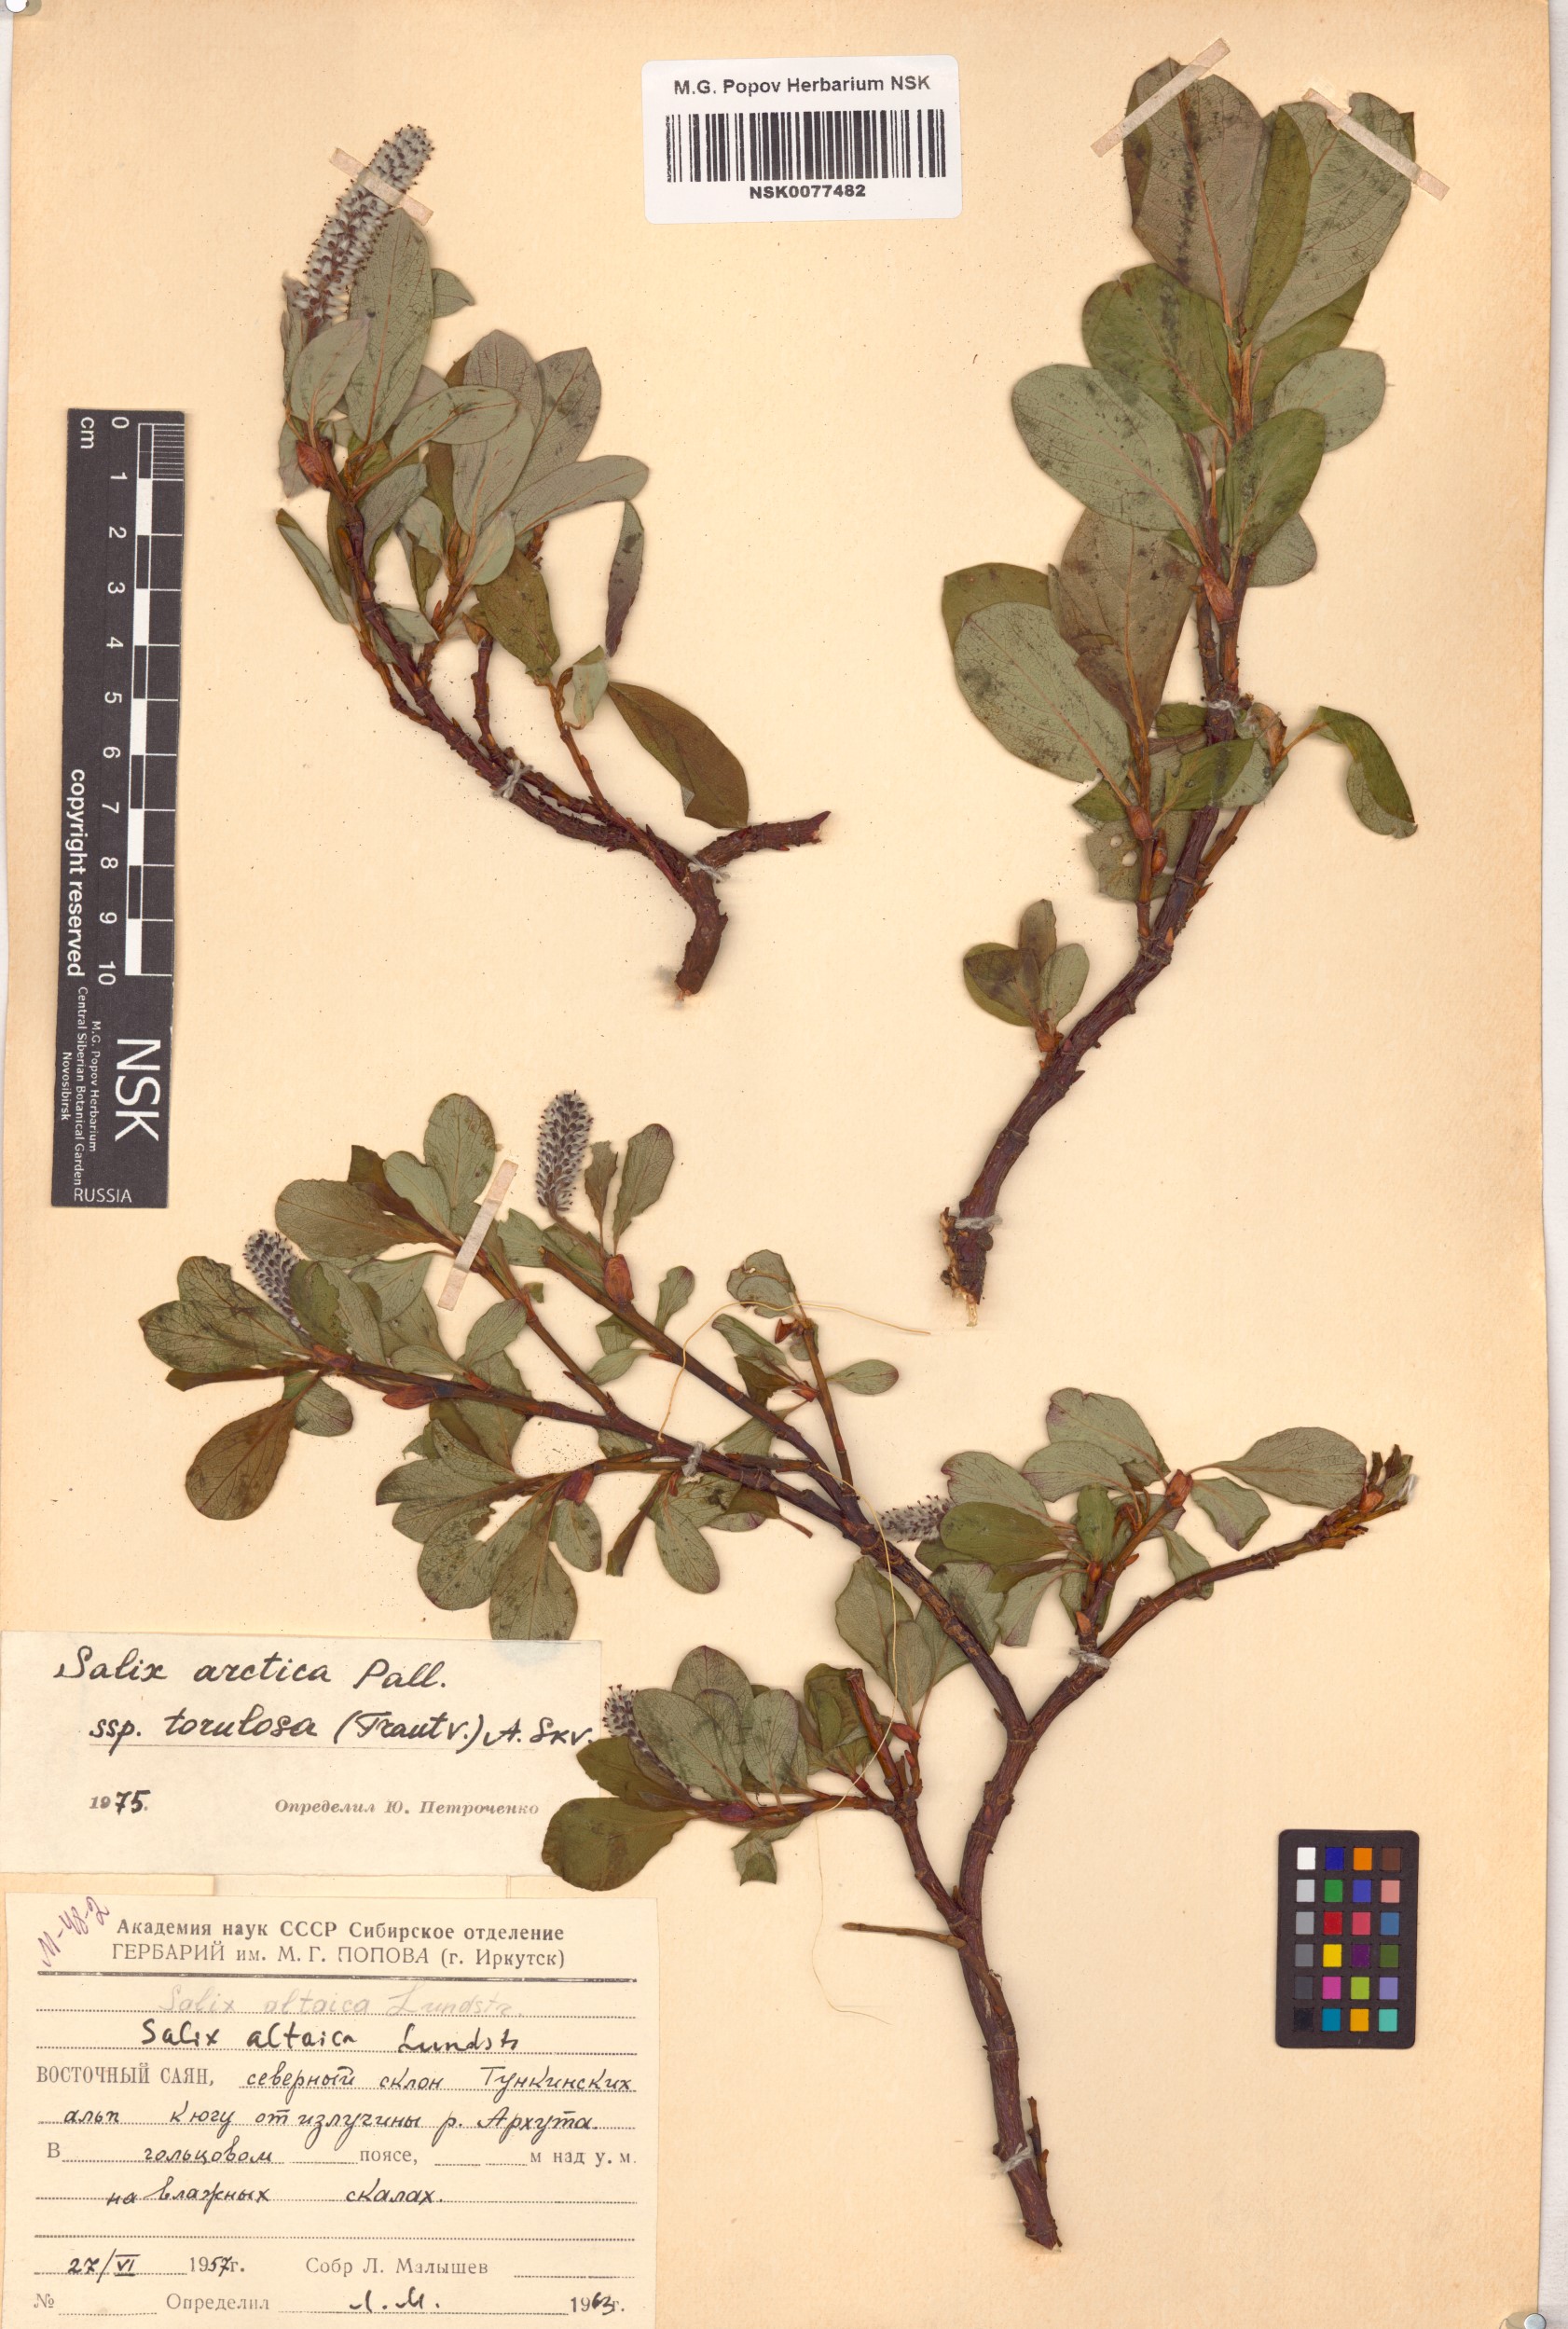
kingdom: Plantae
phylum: Tracheophyta
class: Magnoliopsida
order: Malpighiales
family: Salicaceae
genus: Salix
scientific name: Salix arctica
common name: Arctic willow
